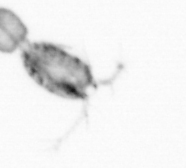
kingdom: Animalia
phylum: Arthropoda
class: Copepoda
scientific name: Copepoda
